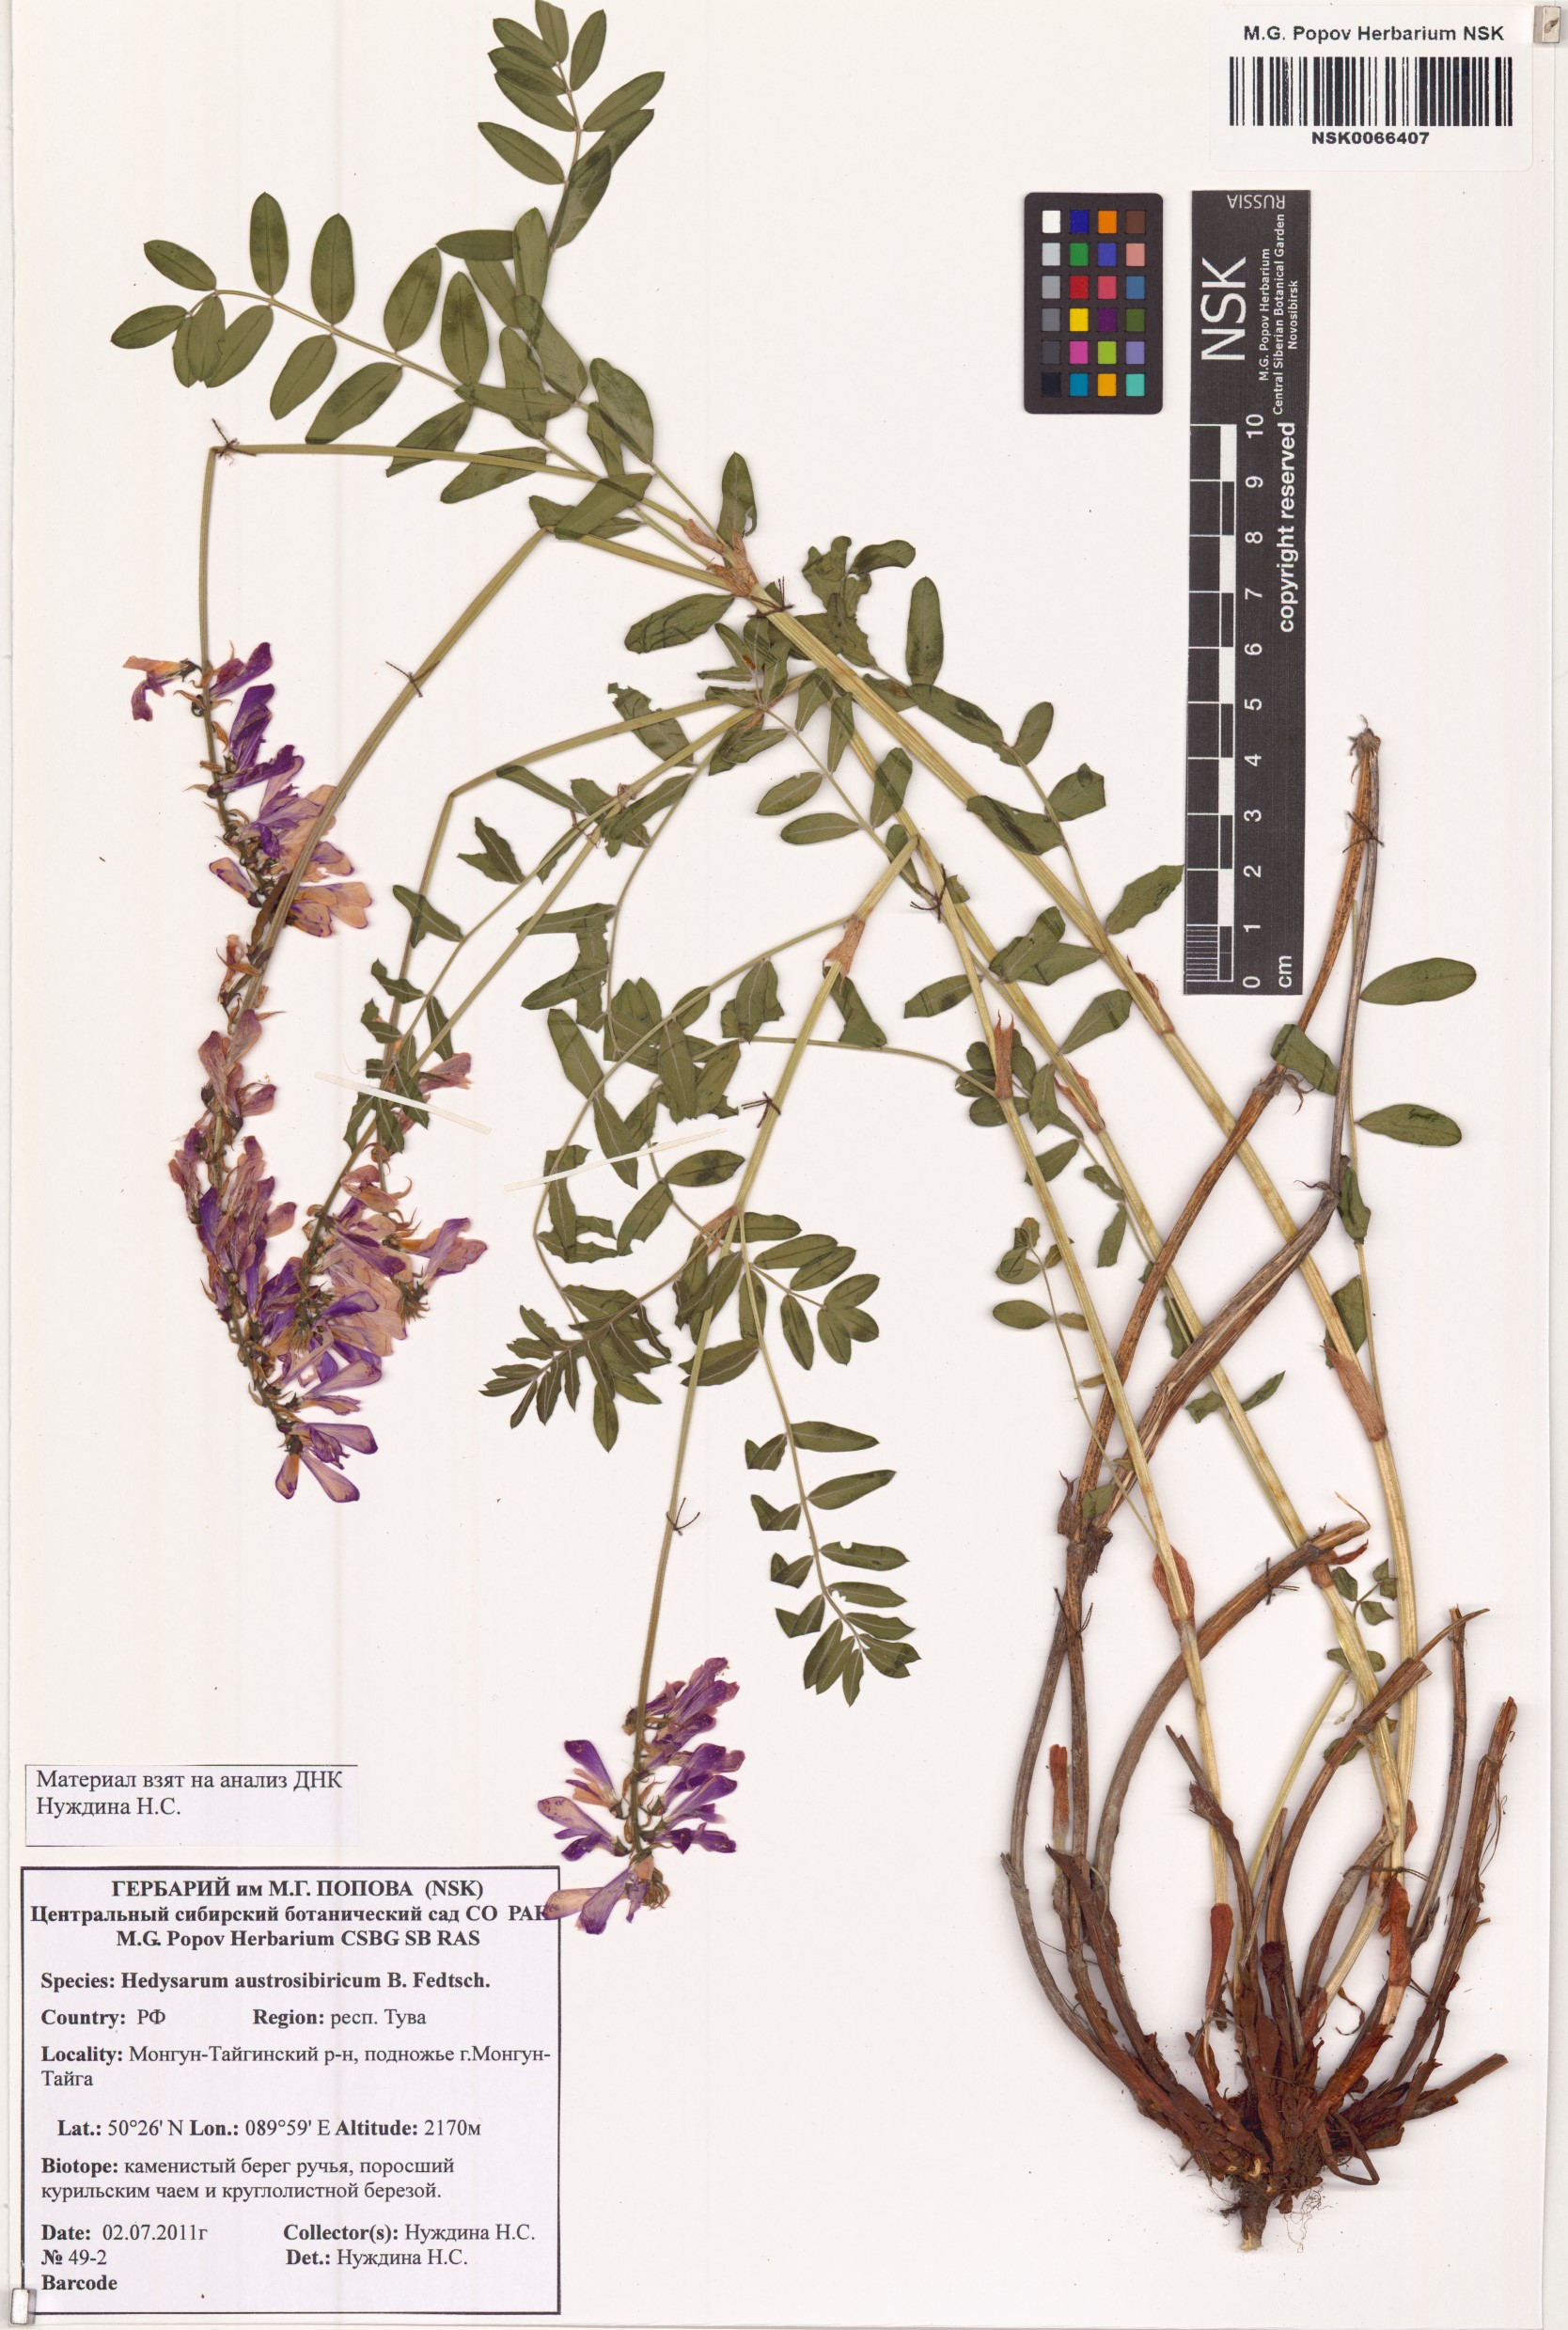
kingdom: Plantae
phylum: Tracheophyta
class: Magnoliopsida
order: Fabales
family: Fabaceae
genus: Hedysarum
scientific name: Hedysarum neglectum
